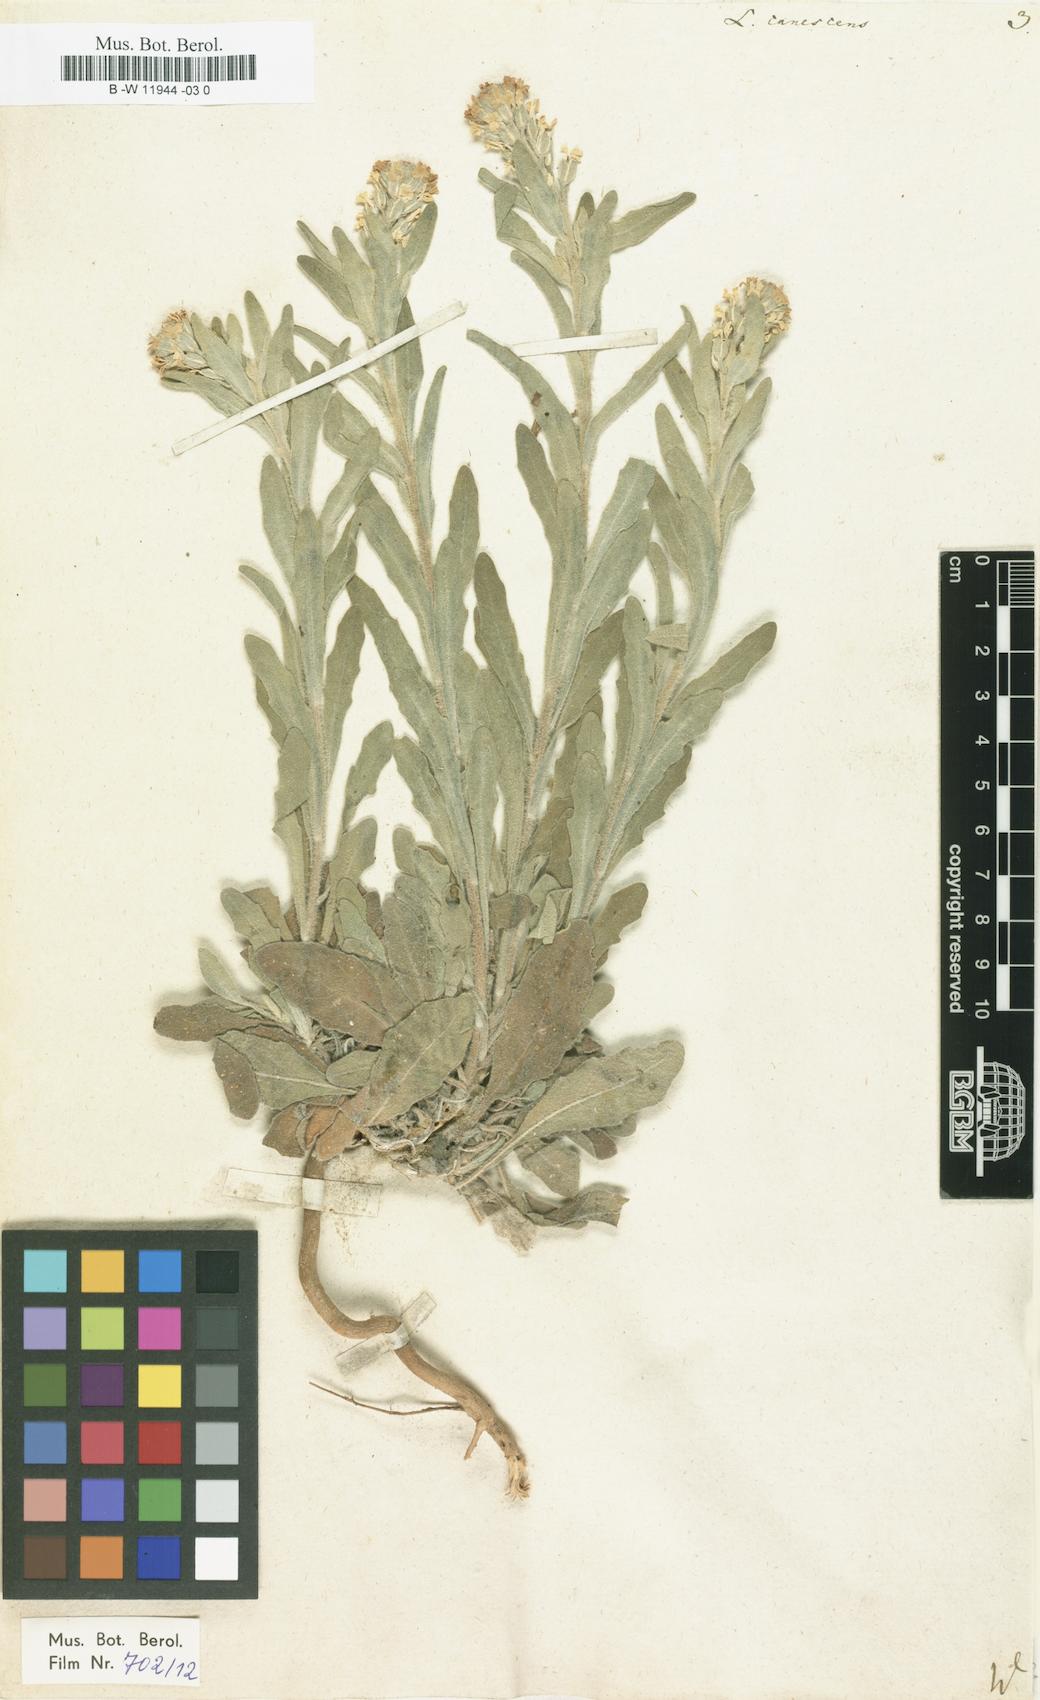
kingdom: Plantae
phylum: Tracheophyta
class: Magnoliopsida
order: Brassicales
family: Brassicaceae
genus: Fibigia
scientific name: Fibigia clypeata
